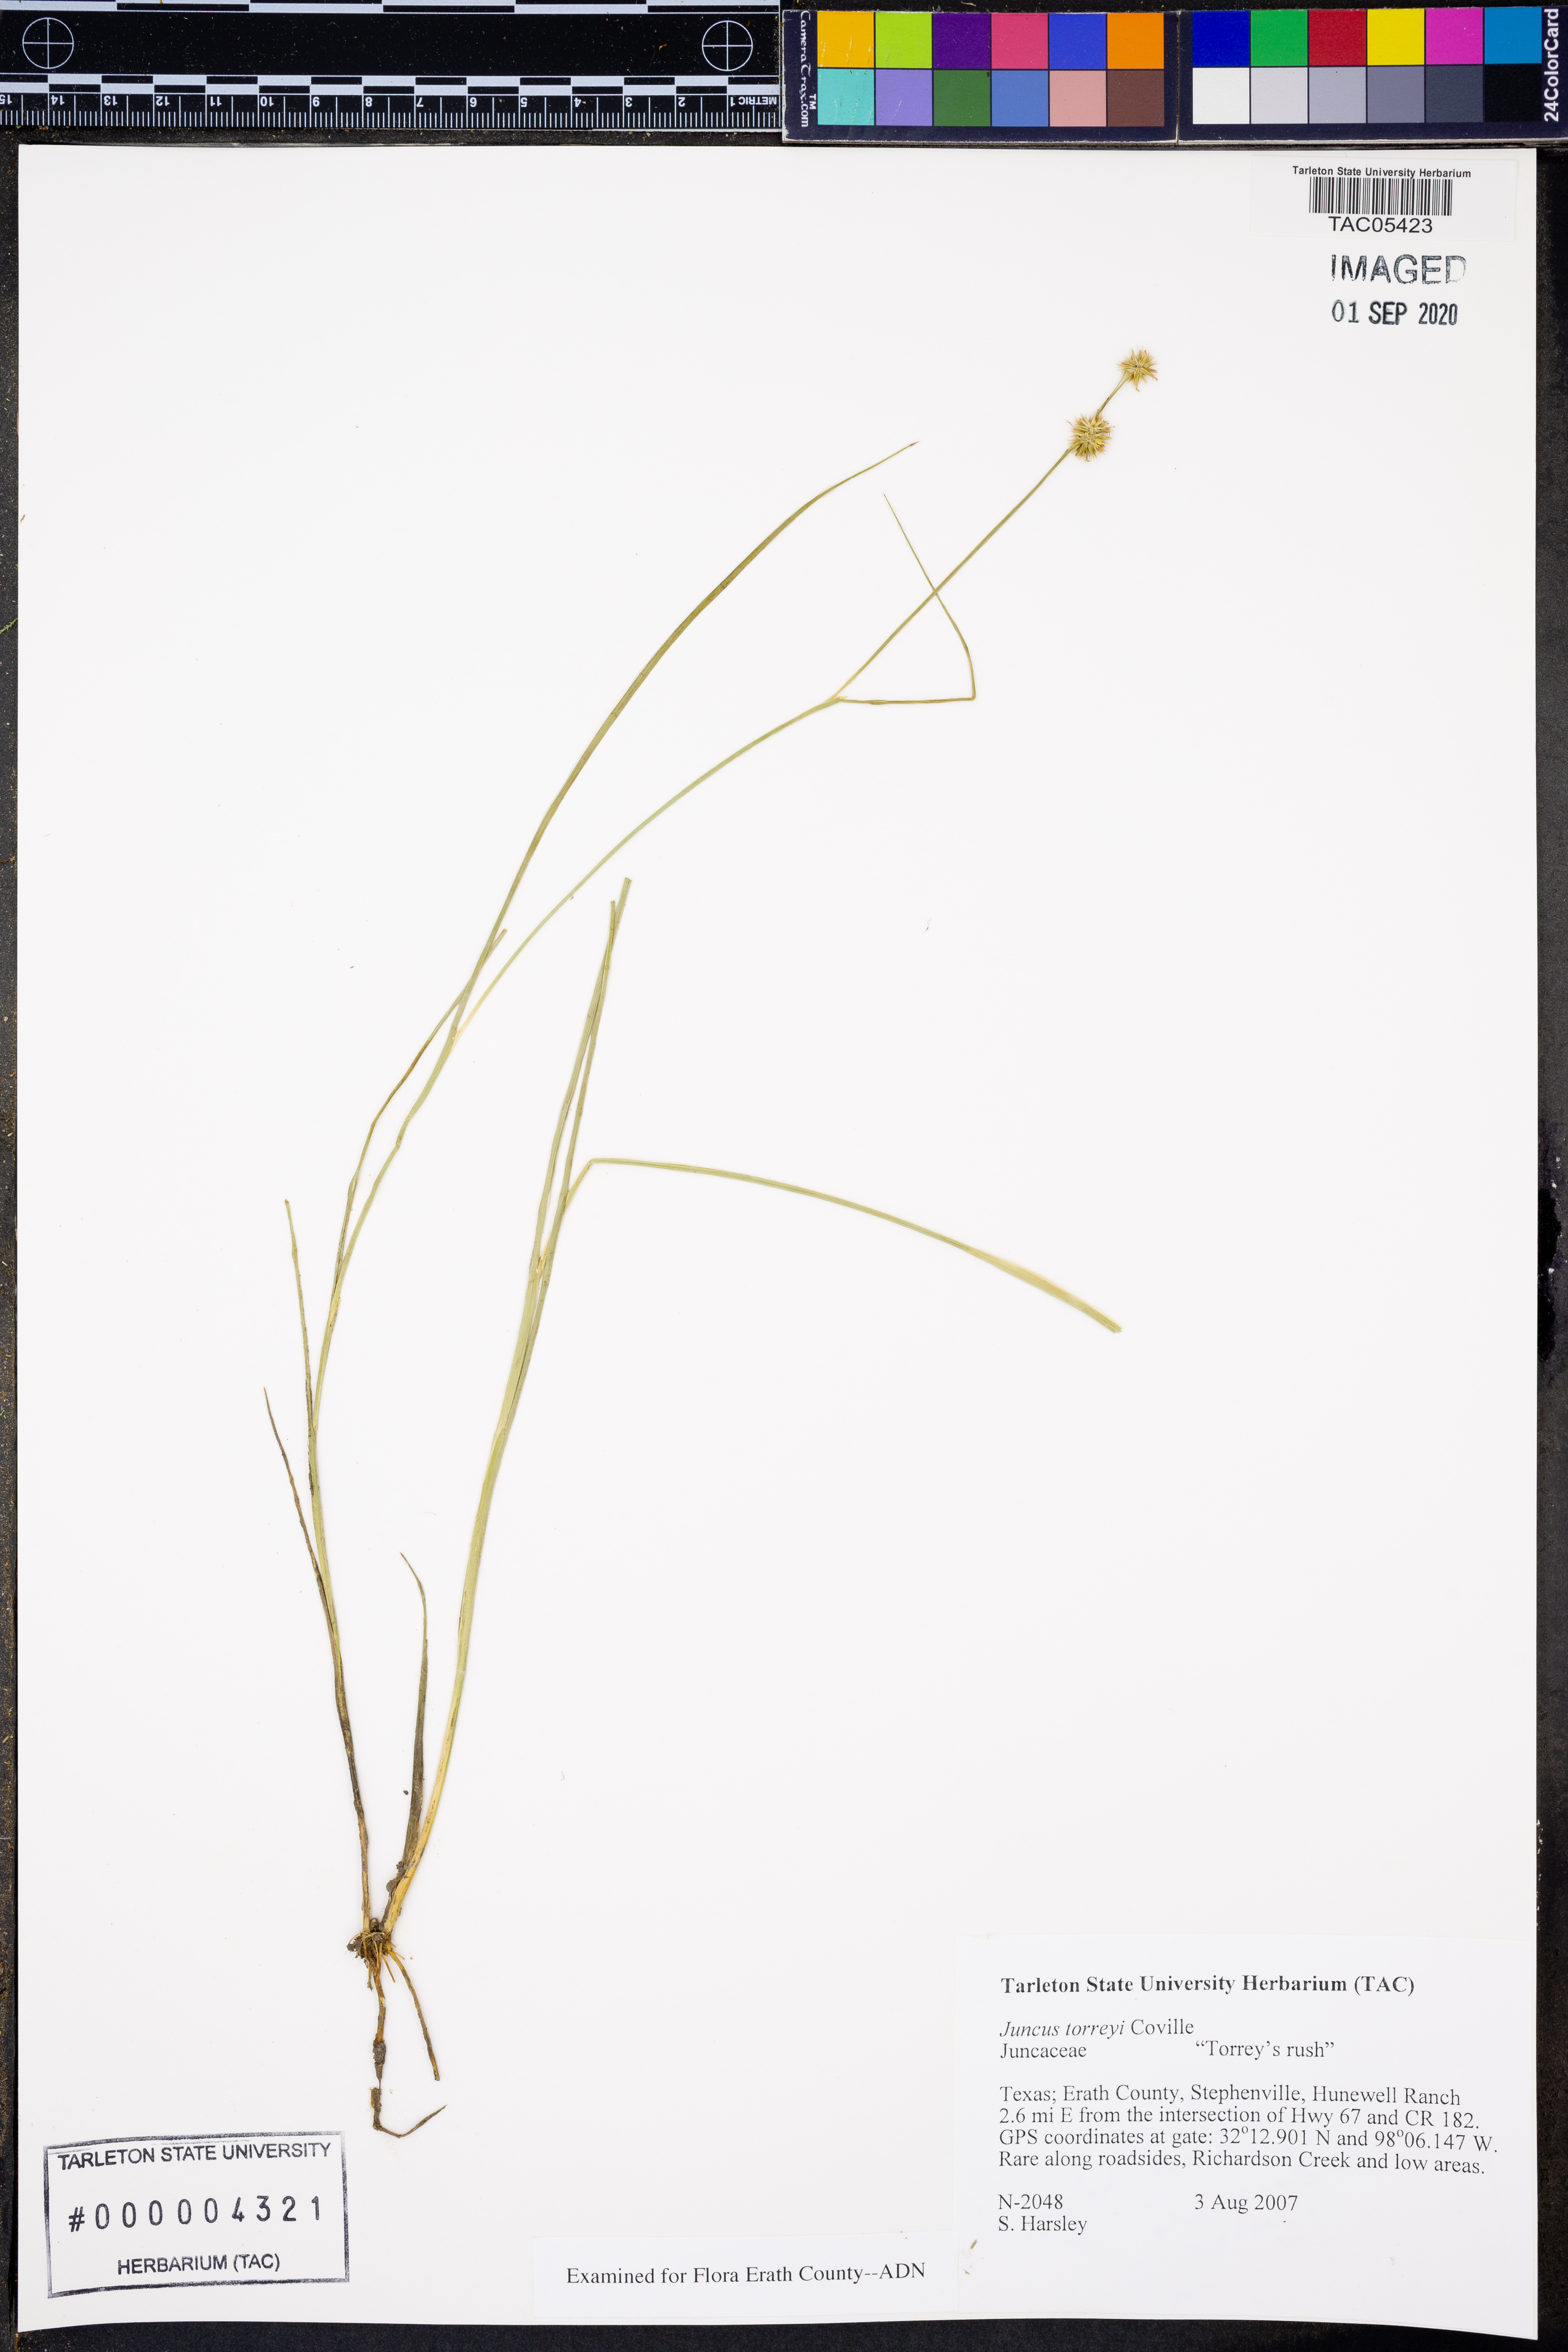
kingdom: Plantae
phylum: Tracheophyta
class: Liliopsida
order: Poales
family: Juncaceae
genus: Juncus
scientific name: Juncus torreyi
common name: Torrey's rush
